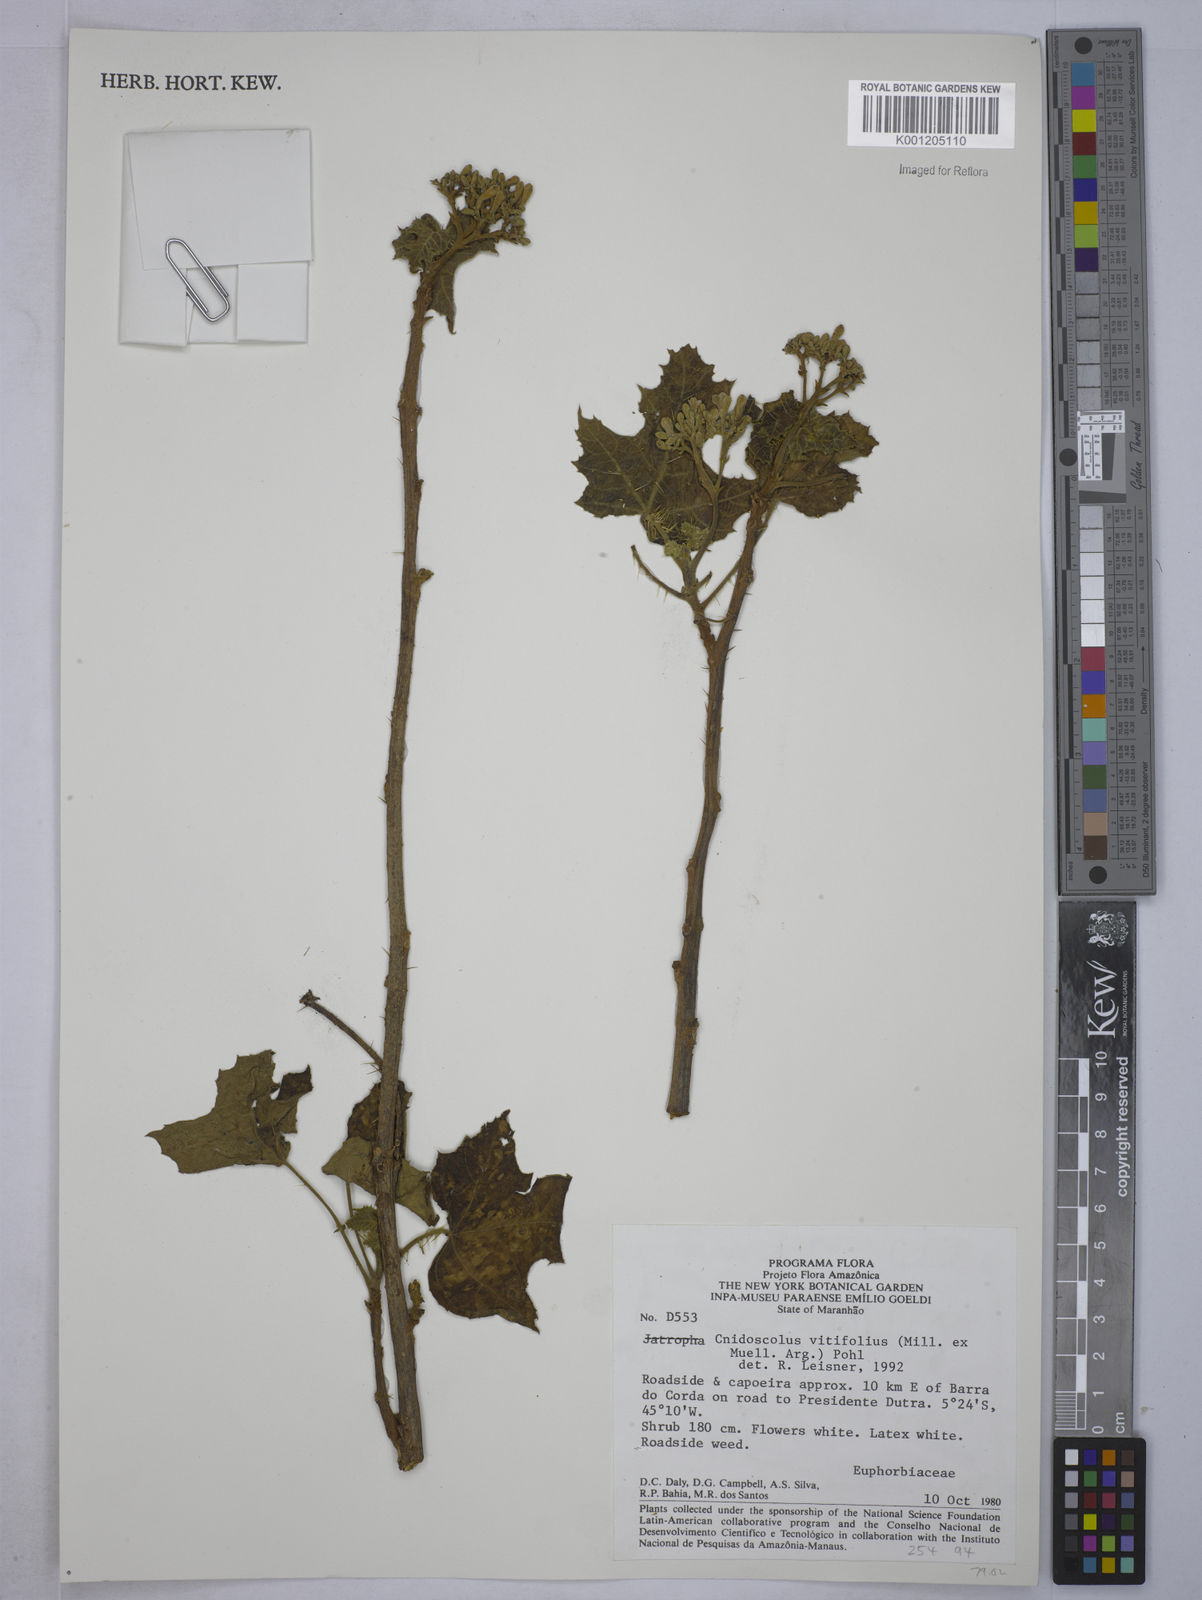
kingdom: Plantae
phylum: Tracheophyta
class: Magnoliopsida
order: Malpighiales
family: Euphorbiaceae
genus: Cnidoscolus
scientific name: Cnidoscolus vitifolius
